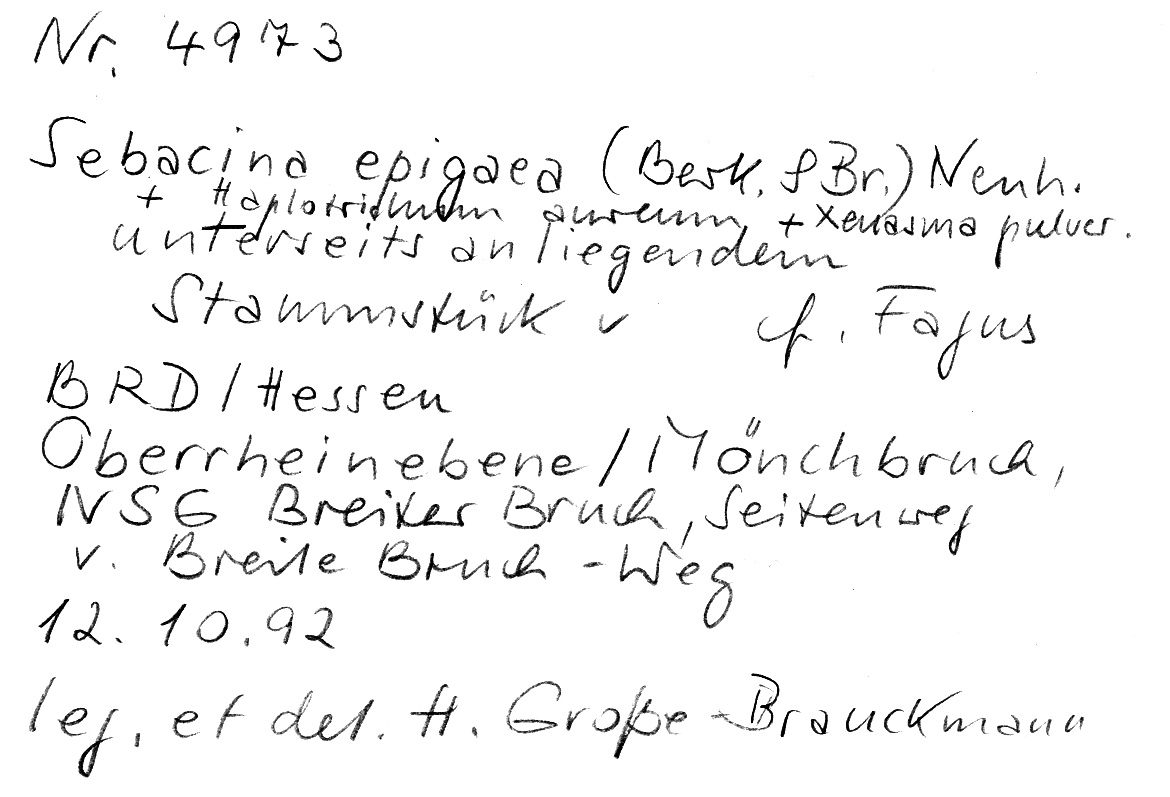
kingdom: Fungi
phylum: Basidiomycota
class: Agaricomycetes
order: Sebacinales
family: Sebacinaceae
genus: Sebacina
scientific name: Sebacina epigaea
